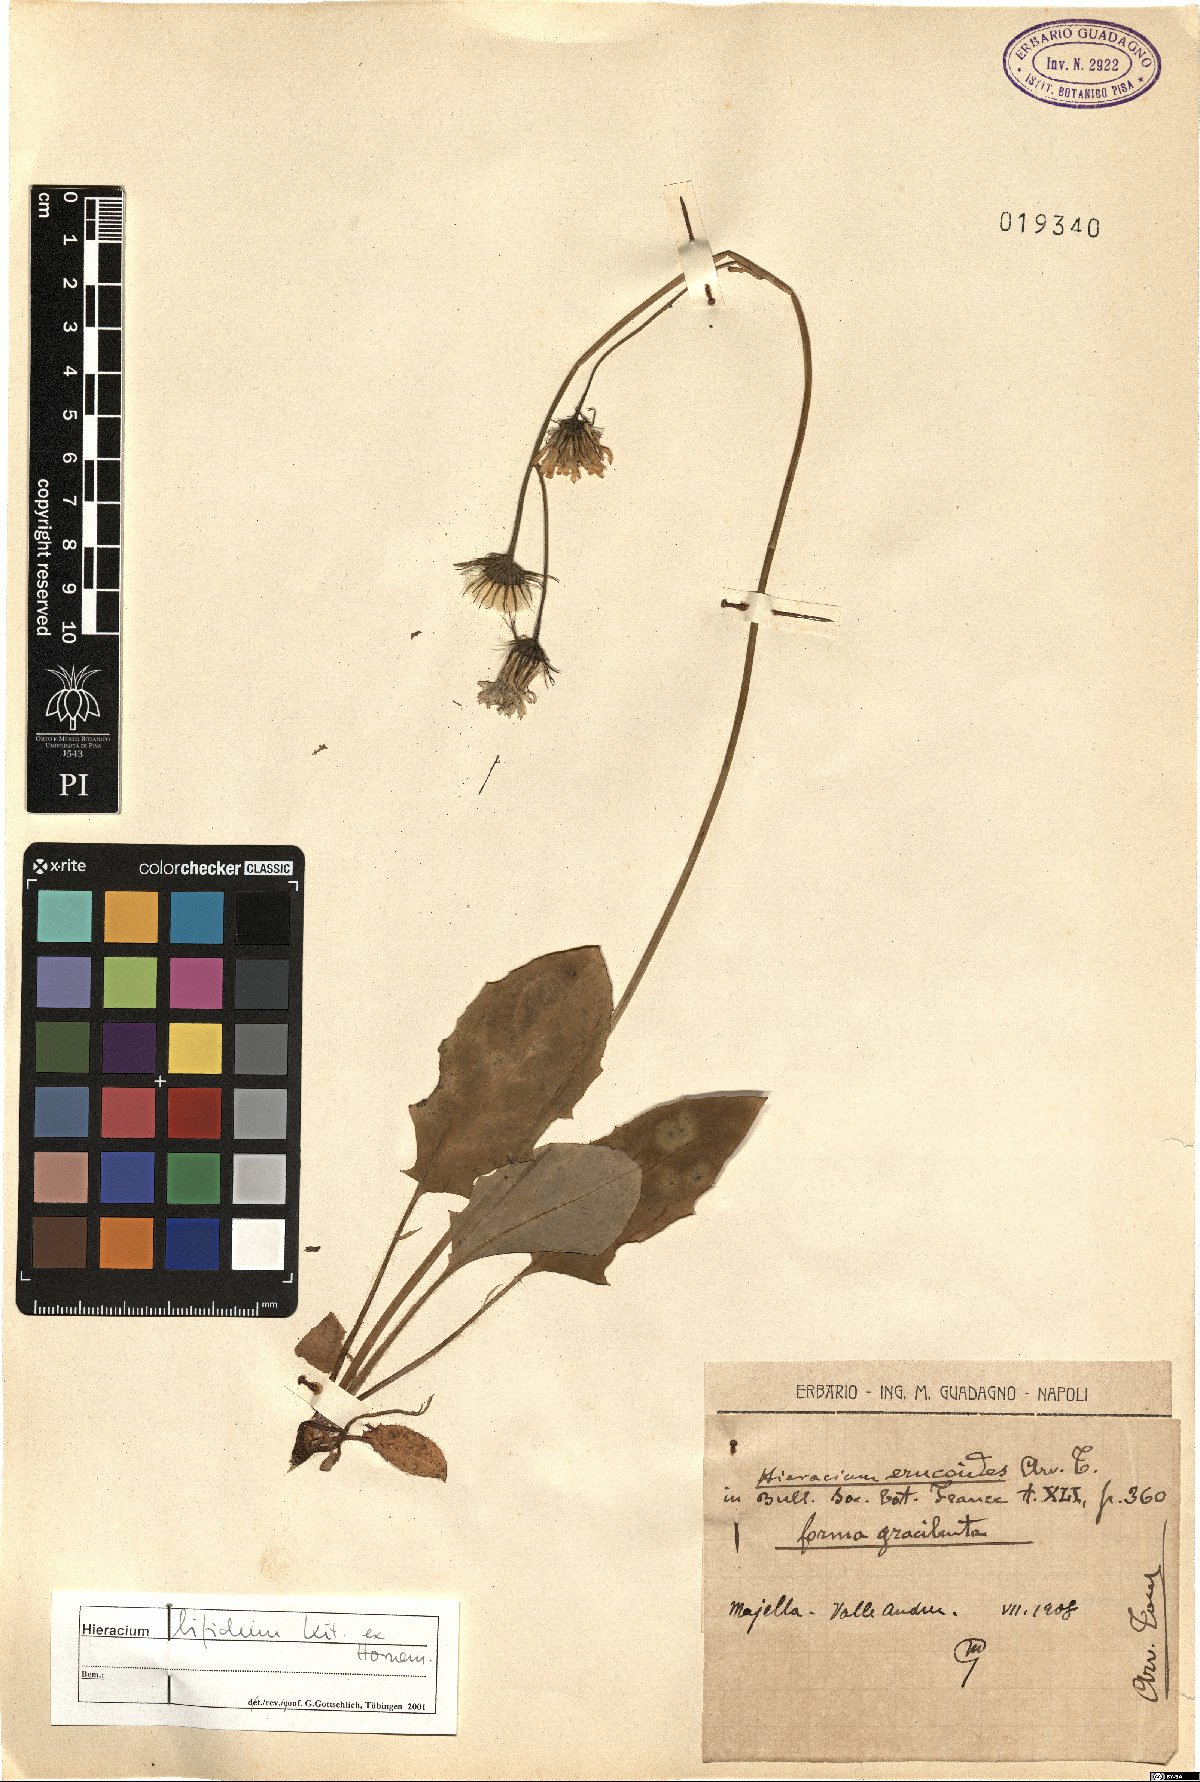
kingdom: Plantae
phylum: Tracheophyta
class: Magnoliopsida
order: Asterales
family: Asteraceae
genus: Hieracium
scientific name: Hieracium bifidum
